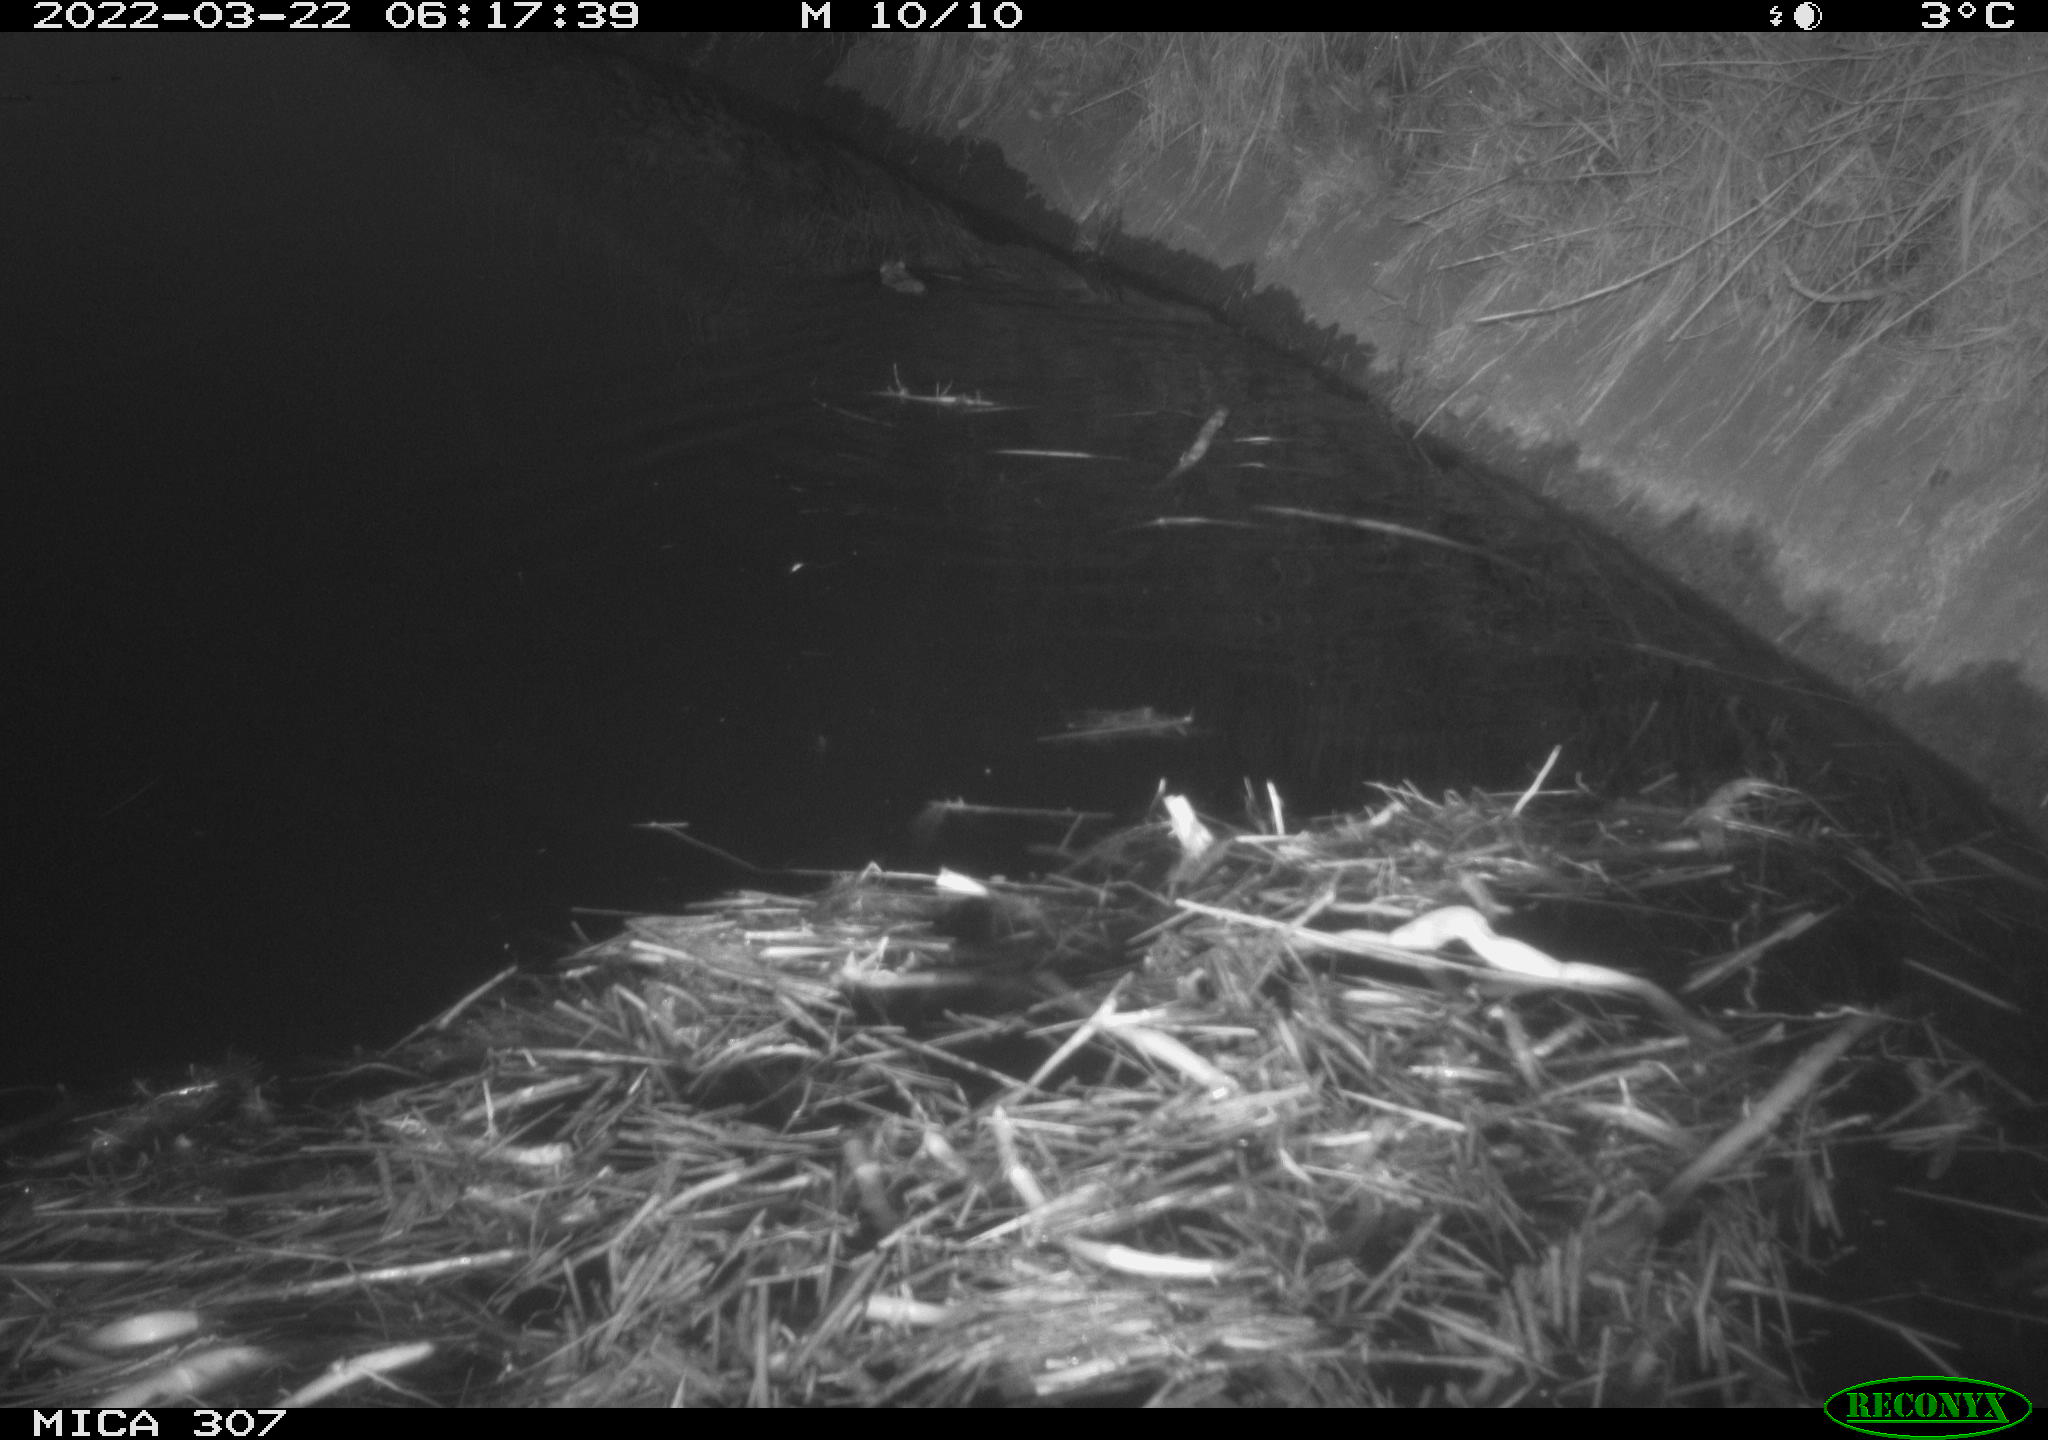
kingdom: Animalia
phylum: Chordata
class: Mammalia
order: Rodentia
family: Muridae
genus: Rattus
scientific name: Rattus norvegicus
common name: Brown rat
